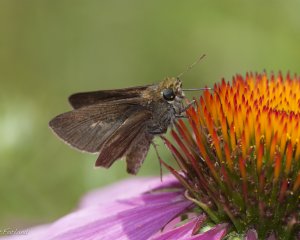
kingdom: Animalia
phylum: Arthropoda
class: Insecta
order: Lepidoptera
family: Hesperiidae
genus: Euphyes
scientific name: Euphyes vestris
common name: Dun Skipper
